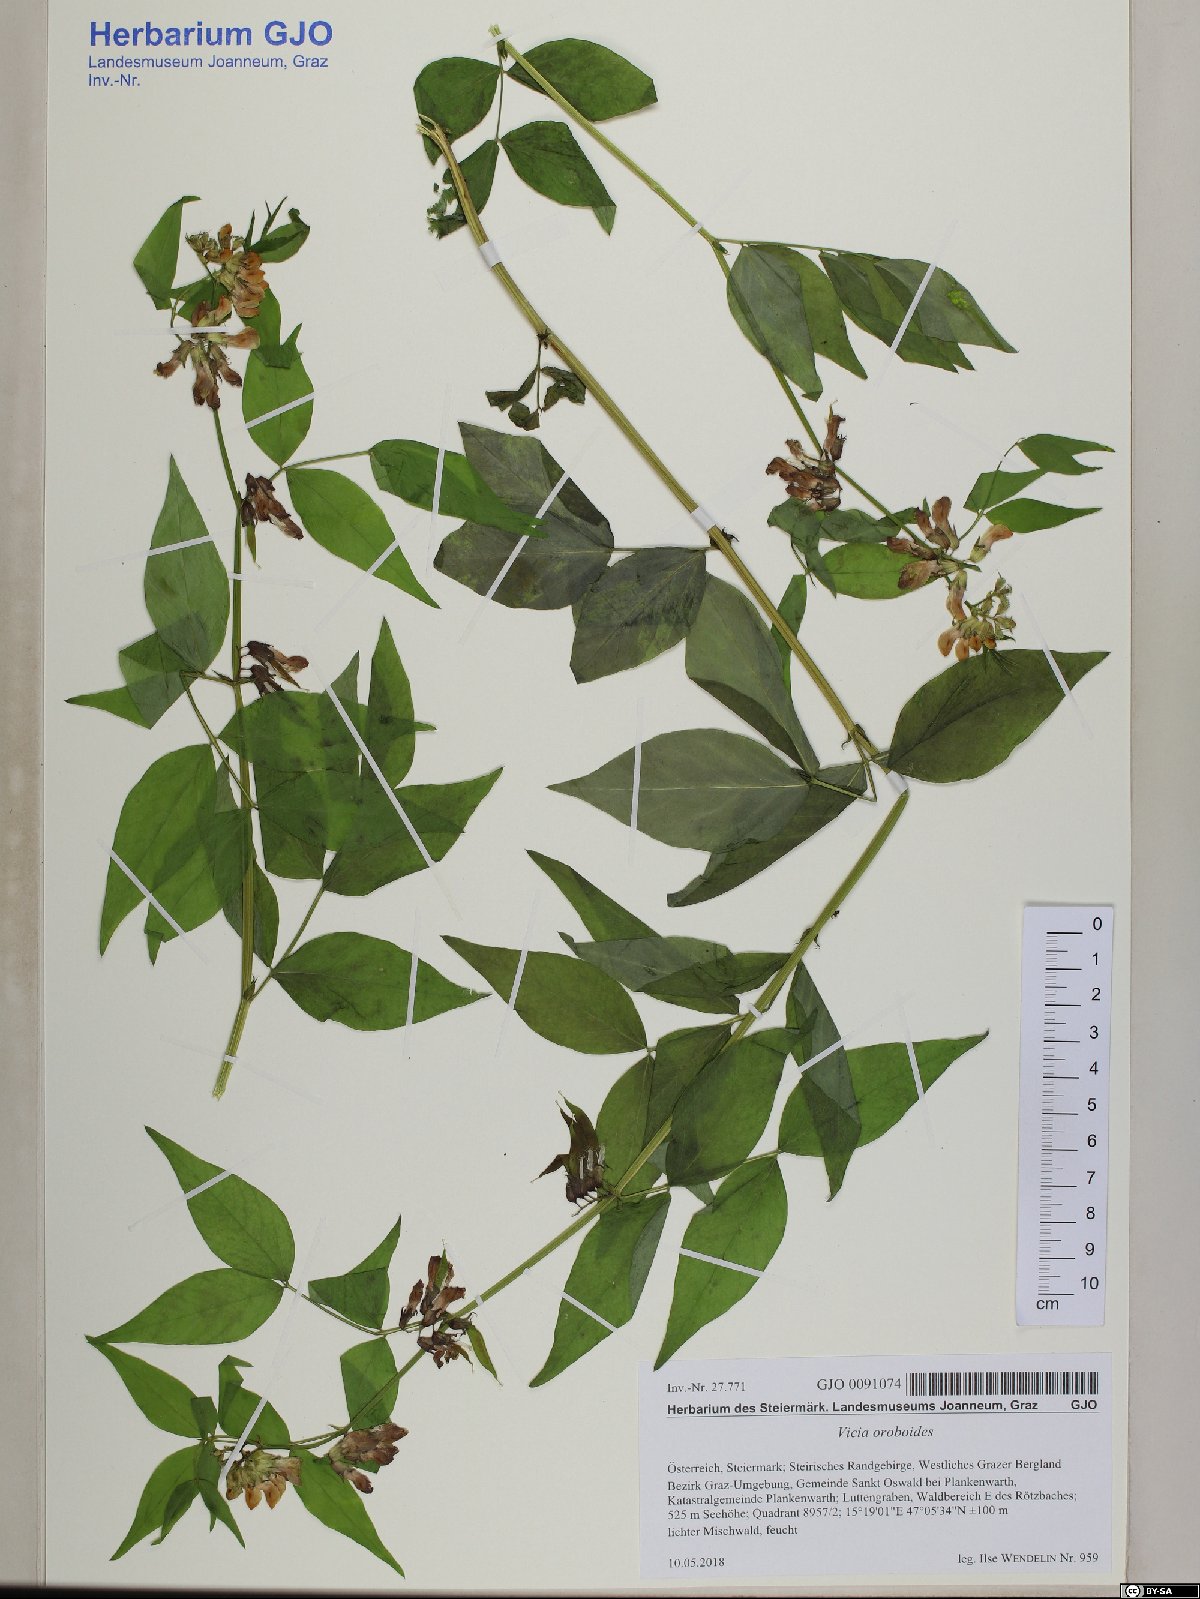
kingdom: Plantae
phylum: Tracheophyta
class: Magnoliopsida
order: Fabales
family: Fabaceae
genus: Vicia
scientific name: Vicia oroboides
